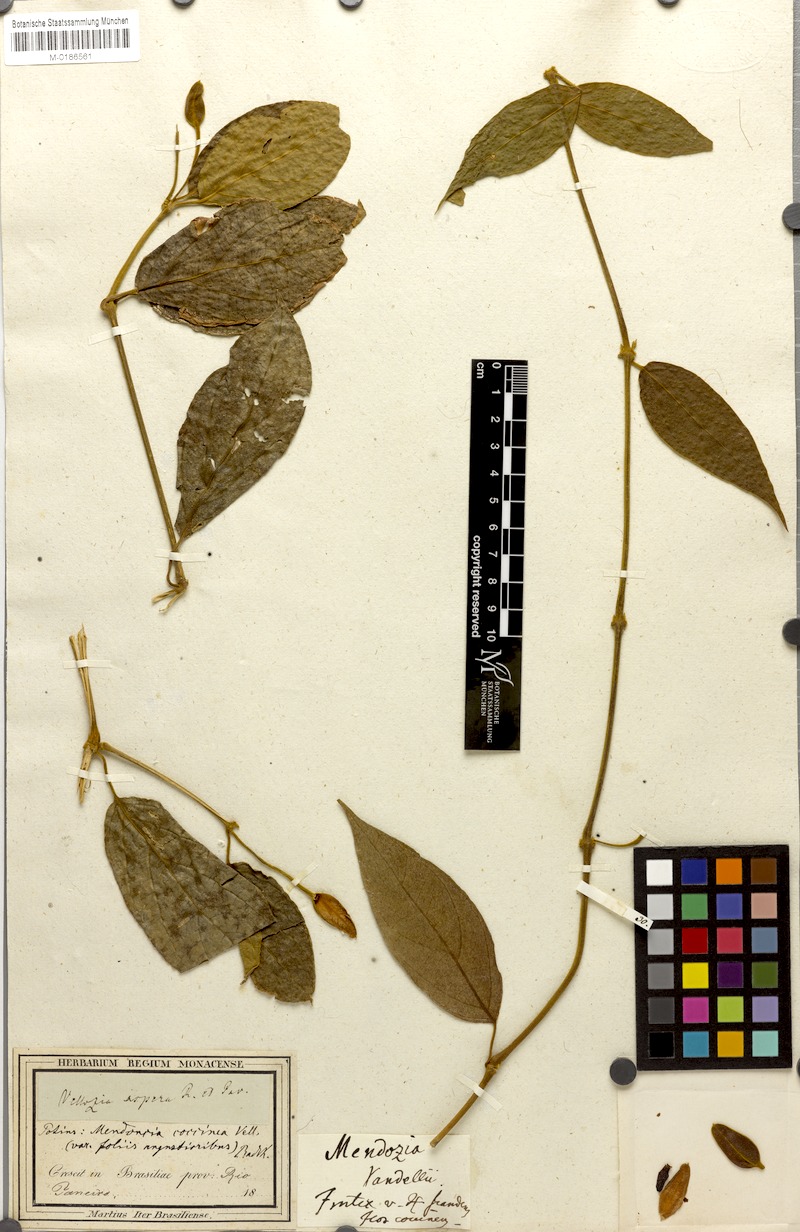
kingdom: Plantae
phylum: Tracheophyta
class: Magnoliopsida
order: Lamiales
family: Acanthaceae
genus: Mendoncia
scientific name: Mendoncia coccinea
